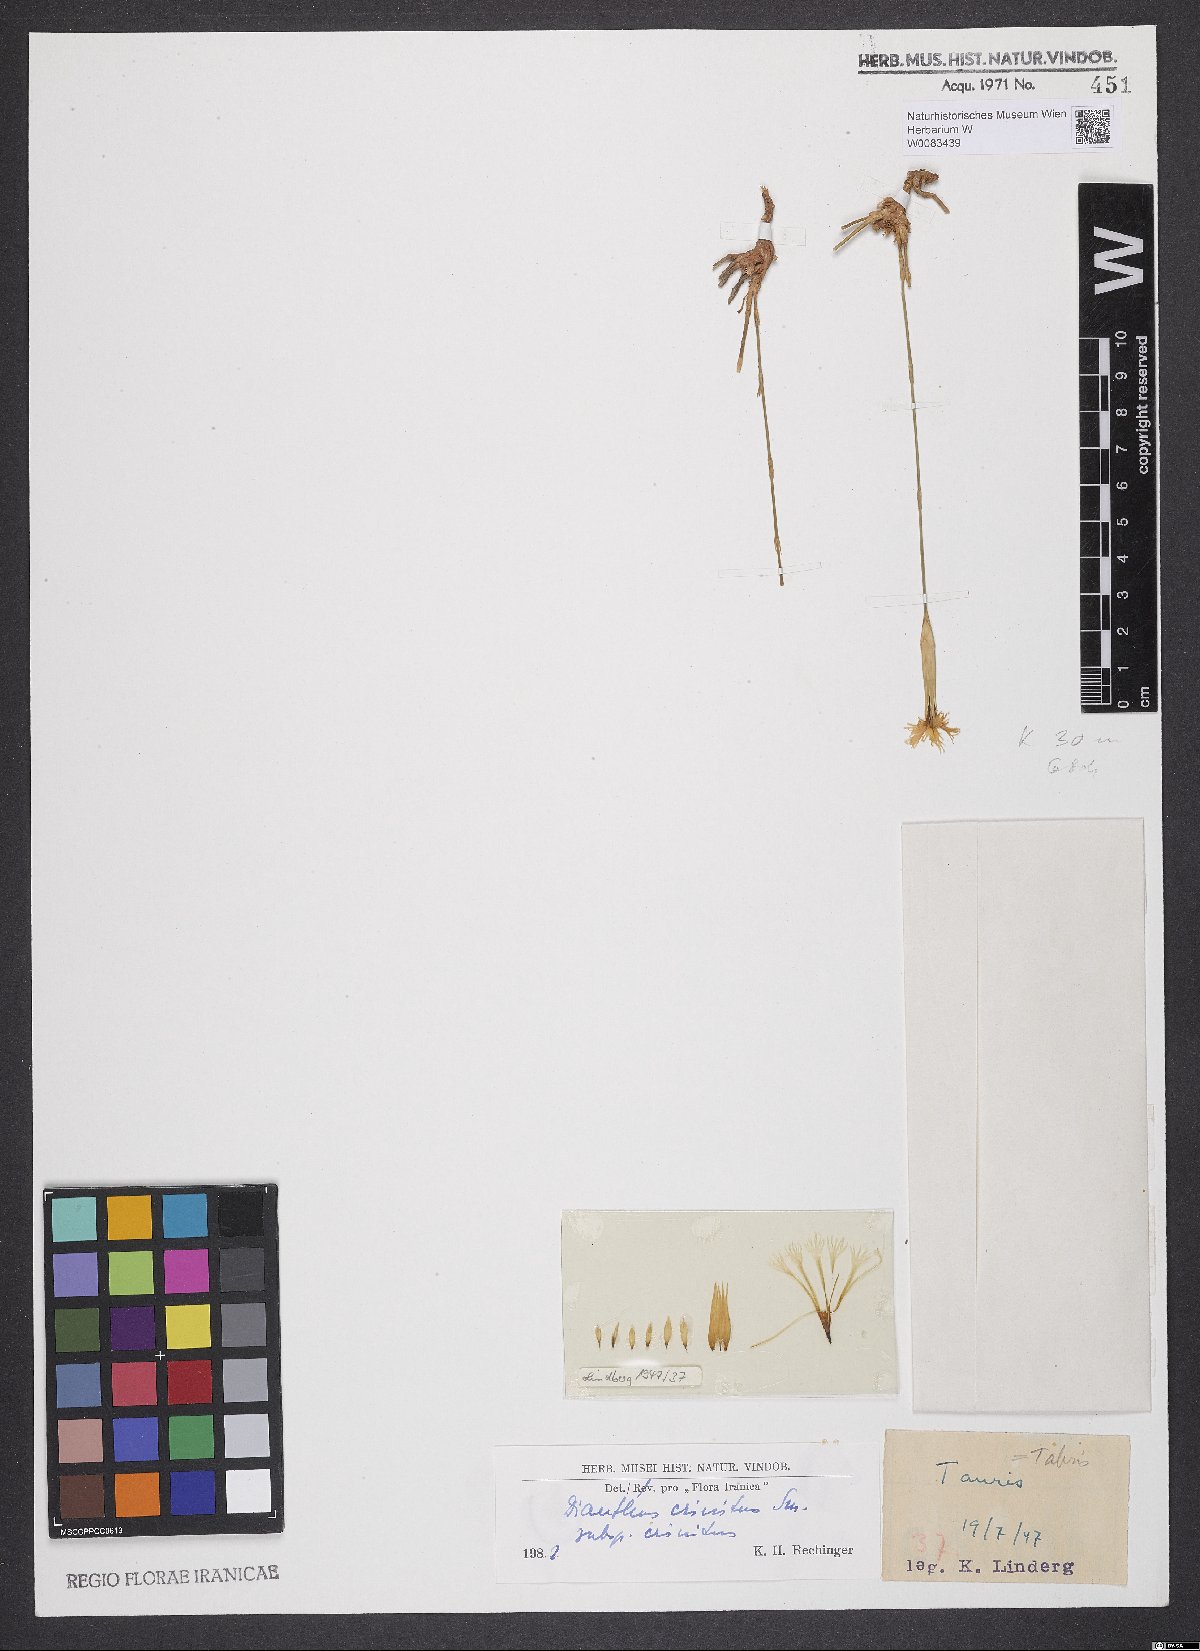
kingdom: Plantae
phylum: Tracheophyta
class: Magnoliopsida
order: Caryophyllales
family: Caryophyllaceae
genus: Dianthus
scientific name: Dianthus crinitus
